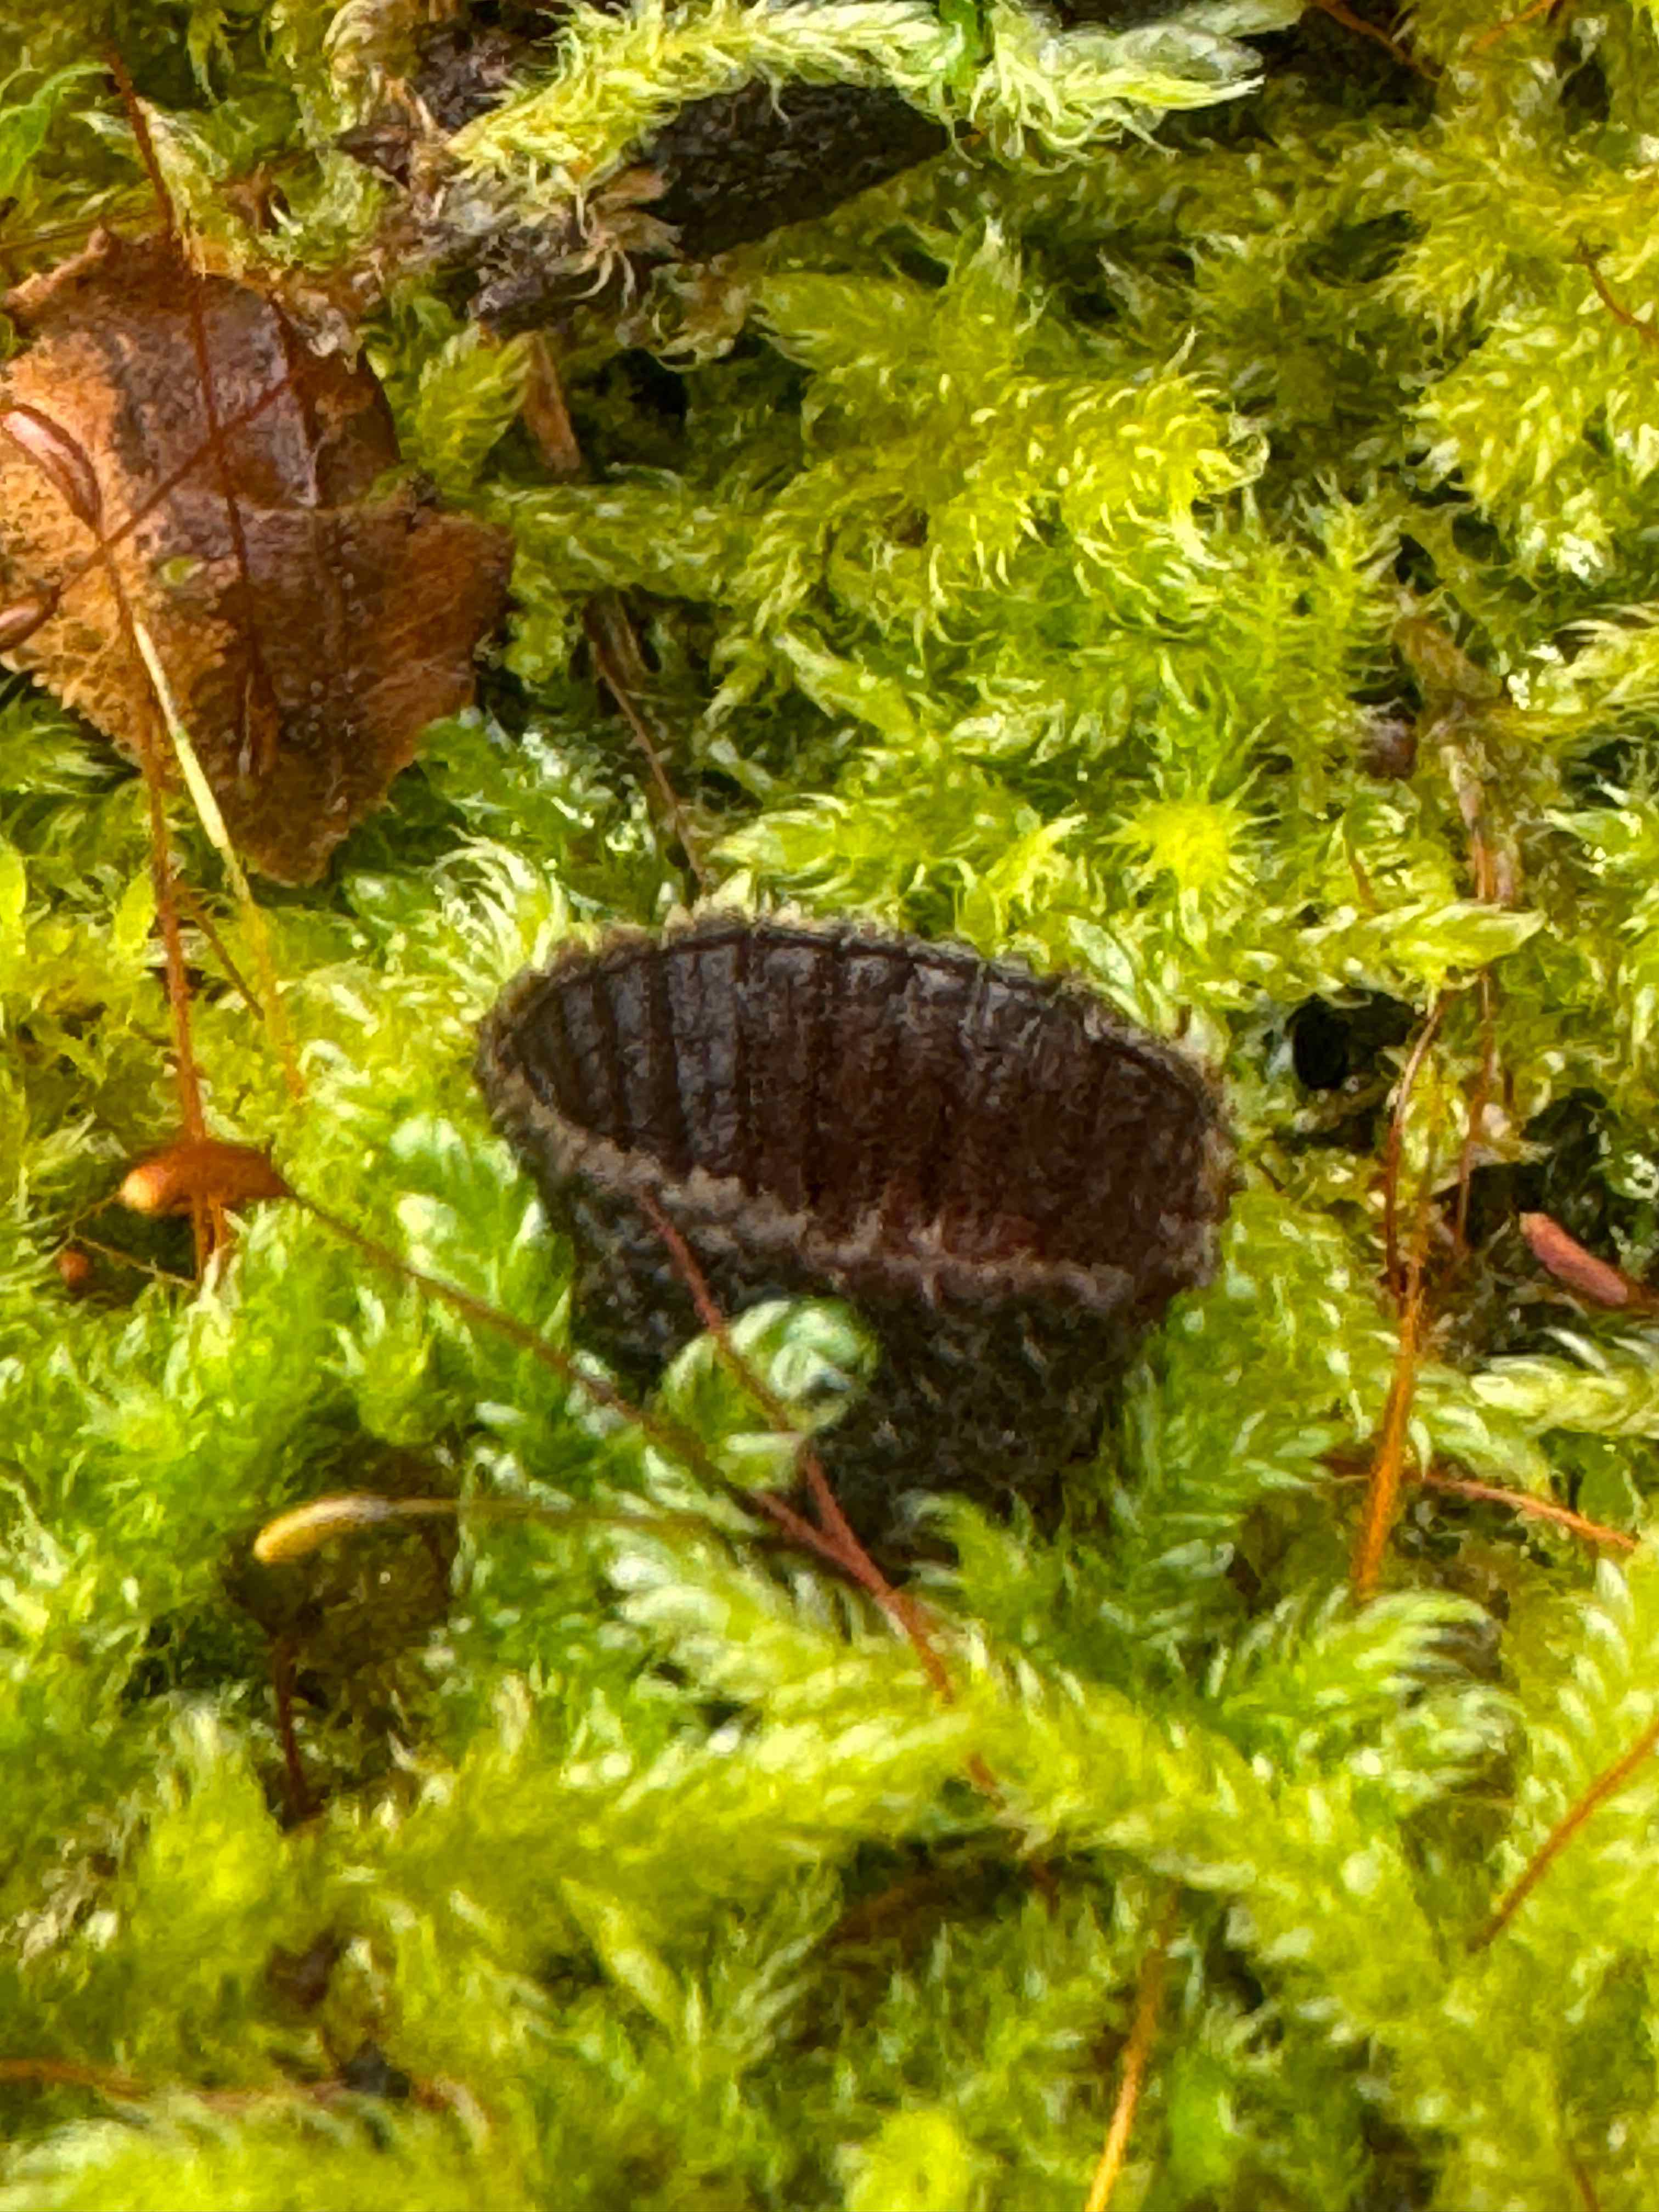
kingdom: Fungi
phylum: Basidiomycota
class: Agaricomycetes
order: Agaricales
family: Agaricaceae
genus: Cyathus
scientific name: Cyathus striatus
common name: stribet redesvamp
